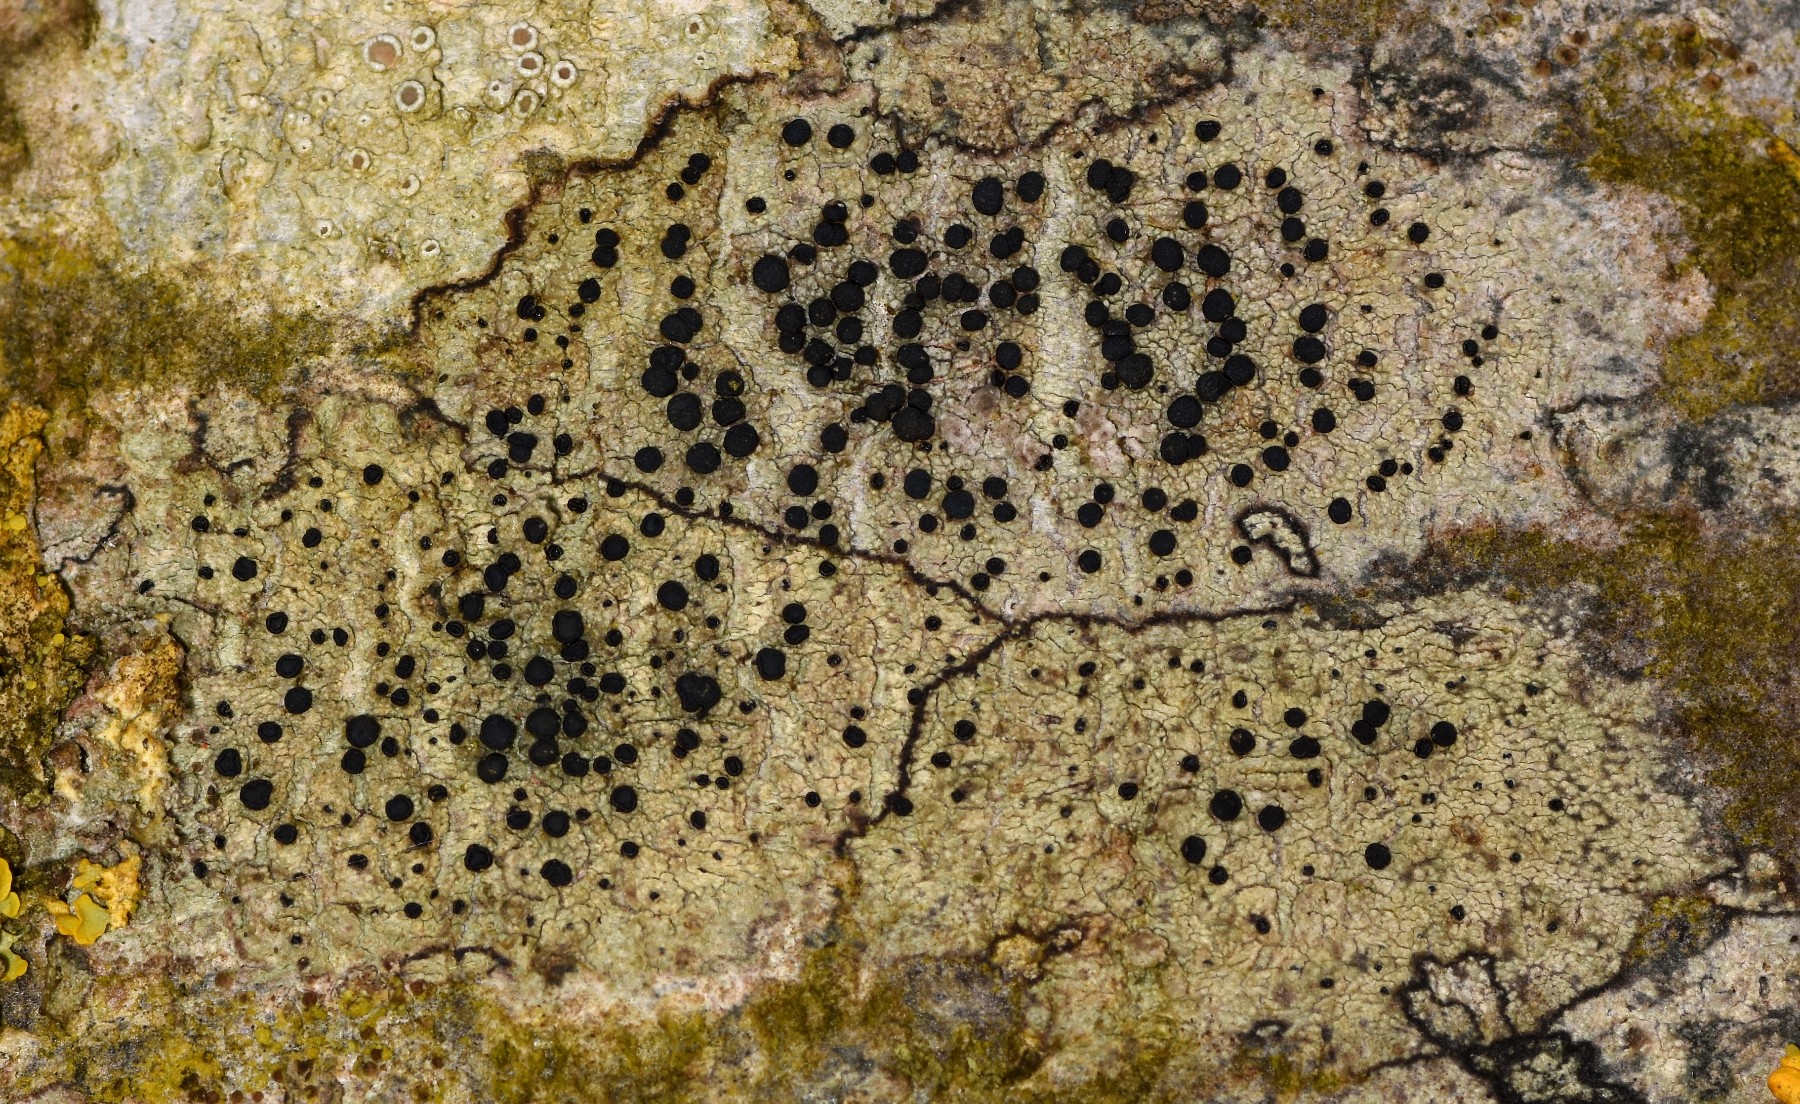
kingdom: Fungi
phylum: Ascomycota
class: Lecanoromycetes
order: Lecanorales
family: Lecanoraceae
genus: Lecidella
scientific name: Lecidella elaeochroma
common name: grågrøn skivelav
